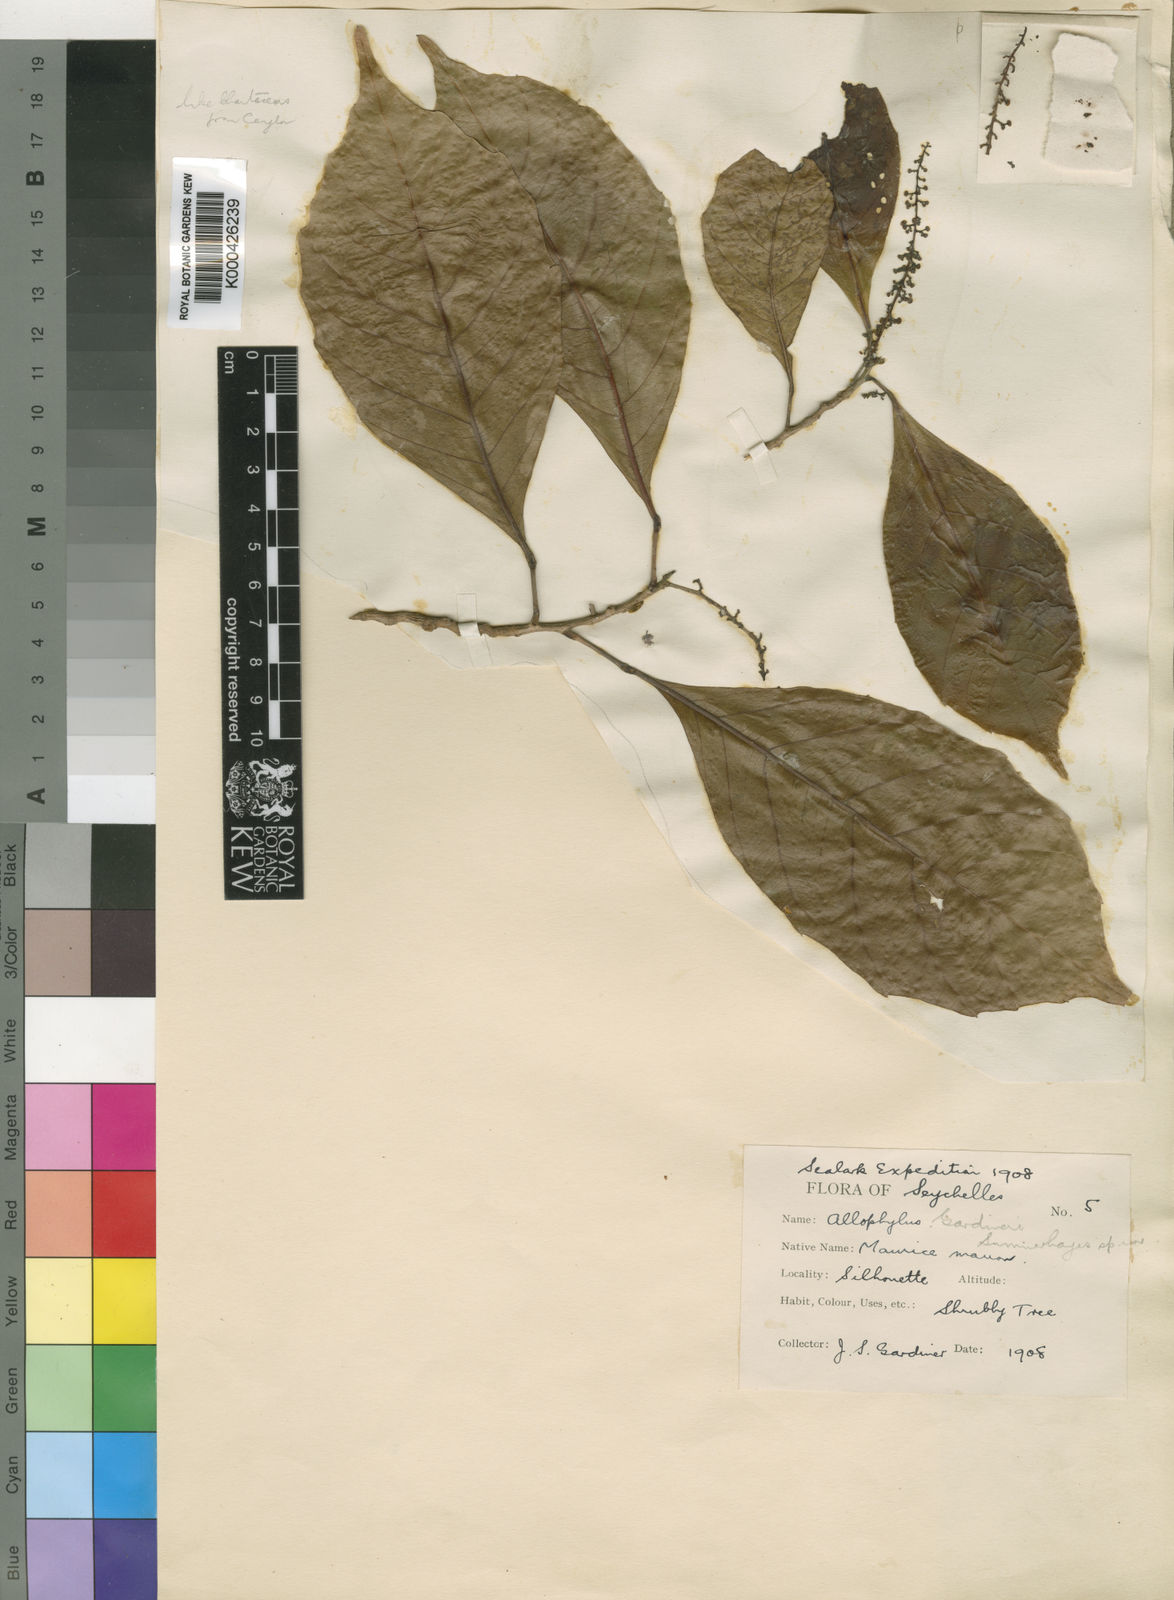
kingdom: Plantae
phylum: Tracheophyta
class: Magnoliopsida
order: Sapindales
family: Sapindaceae
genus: Allophylus
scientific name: Allophylus sechellensis
